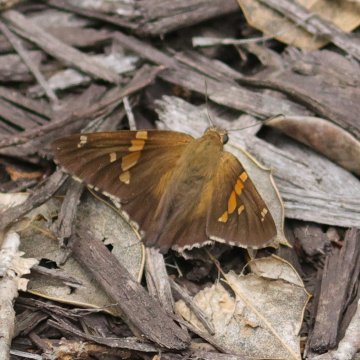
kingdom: Animalia
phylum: Arthropoda
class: Insecta
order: Lepidoptera
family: Hesperiidae
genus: Epargyreus
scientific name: Epargyreus clarus
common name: Silver-spotted Skipper
